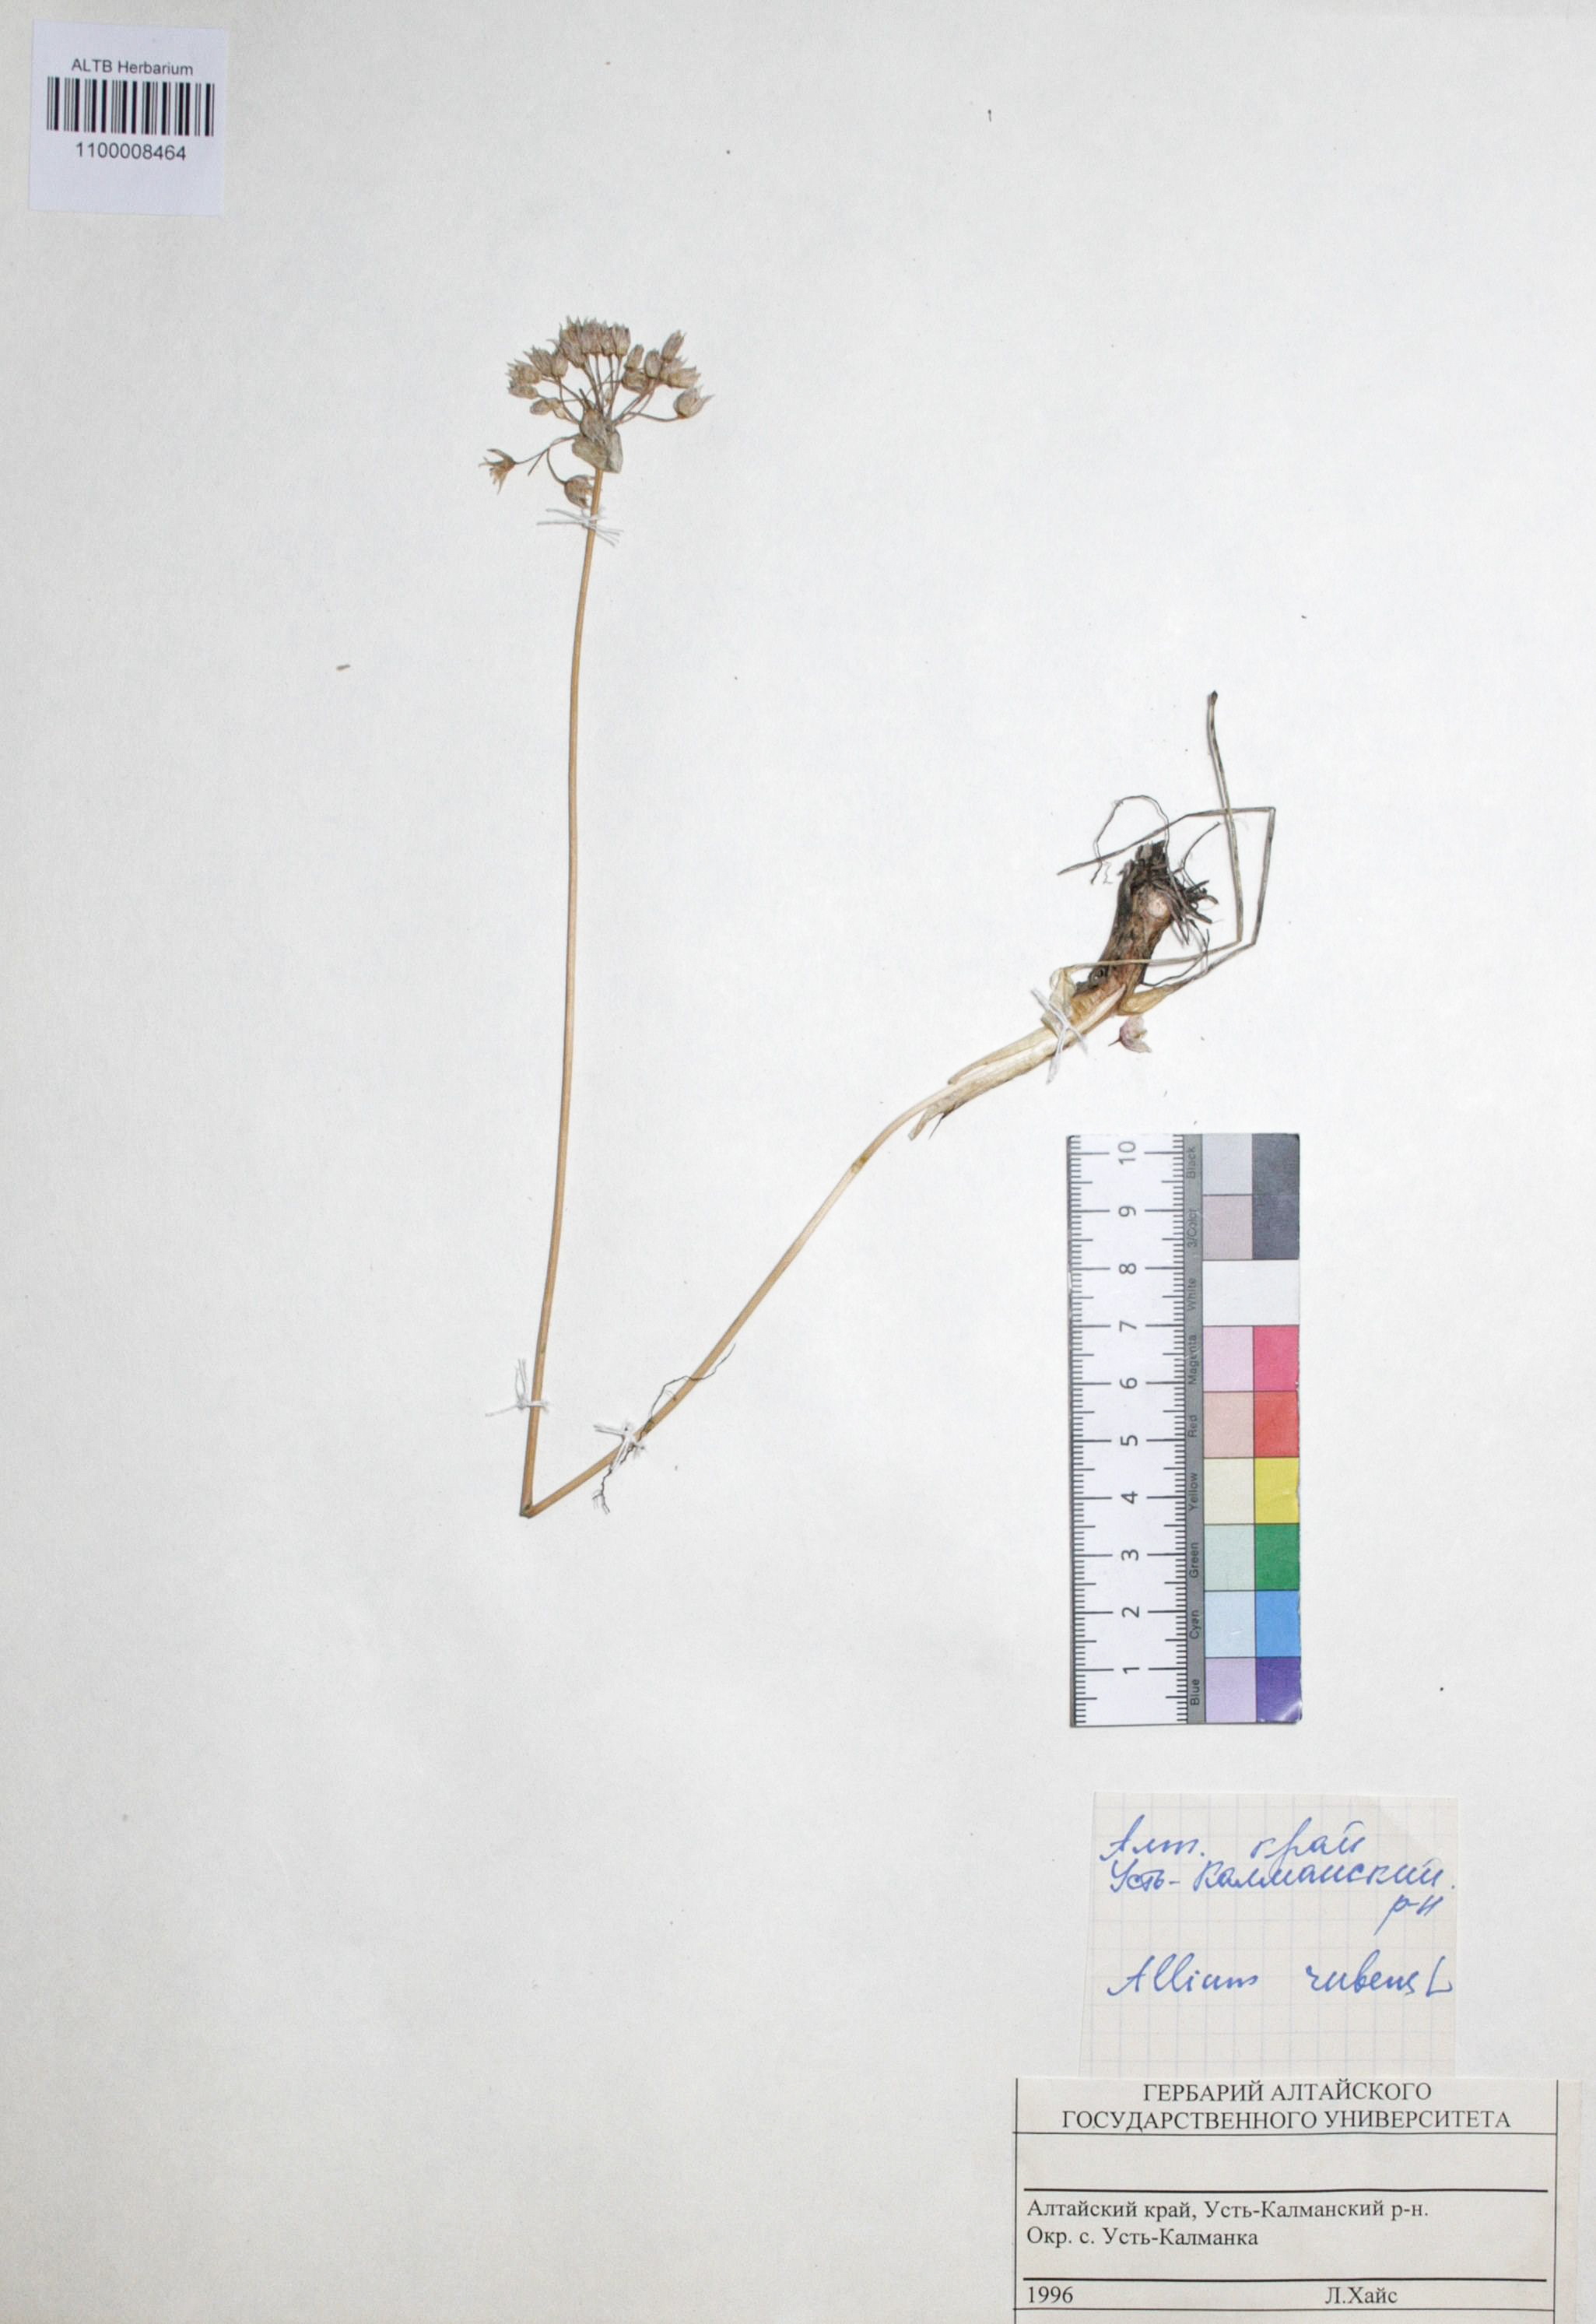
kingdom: Plantae
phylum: Tracheophyta
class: Liliopsida
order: Asparagales
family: Amaryllidaceae
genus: Allium
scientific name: Allium rubens
